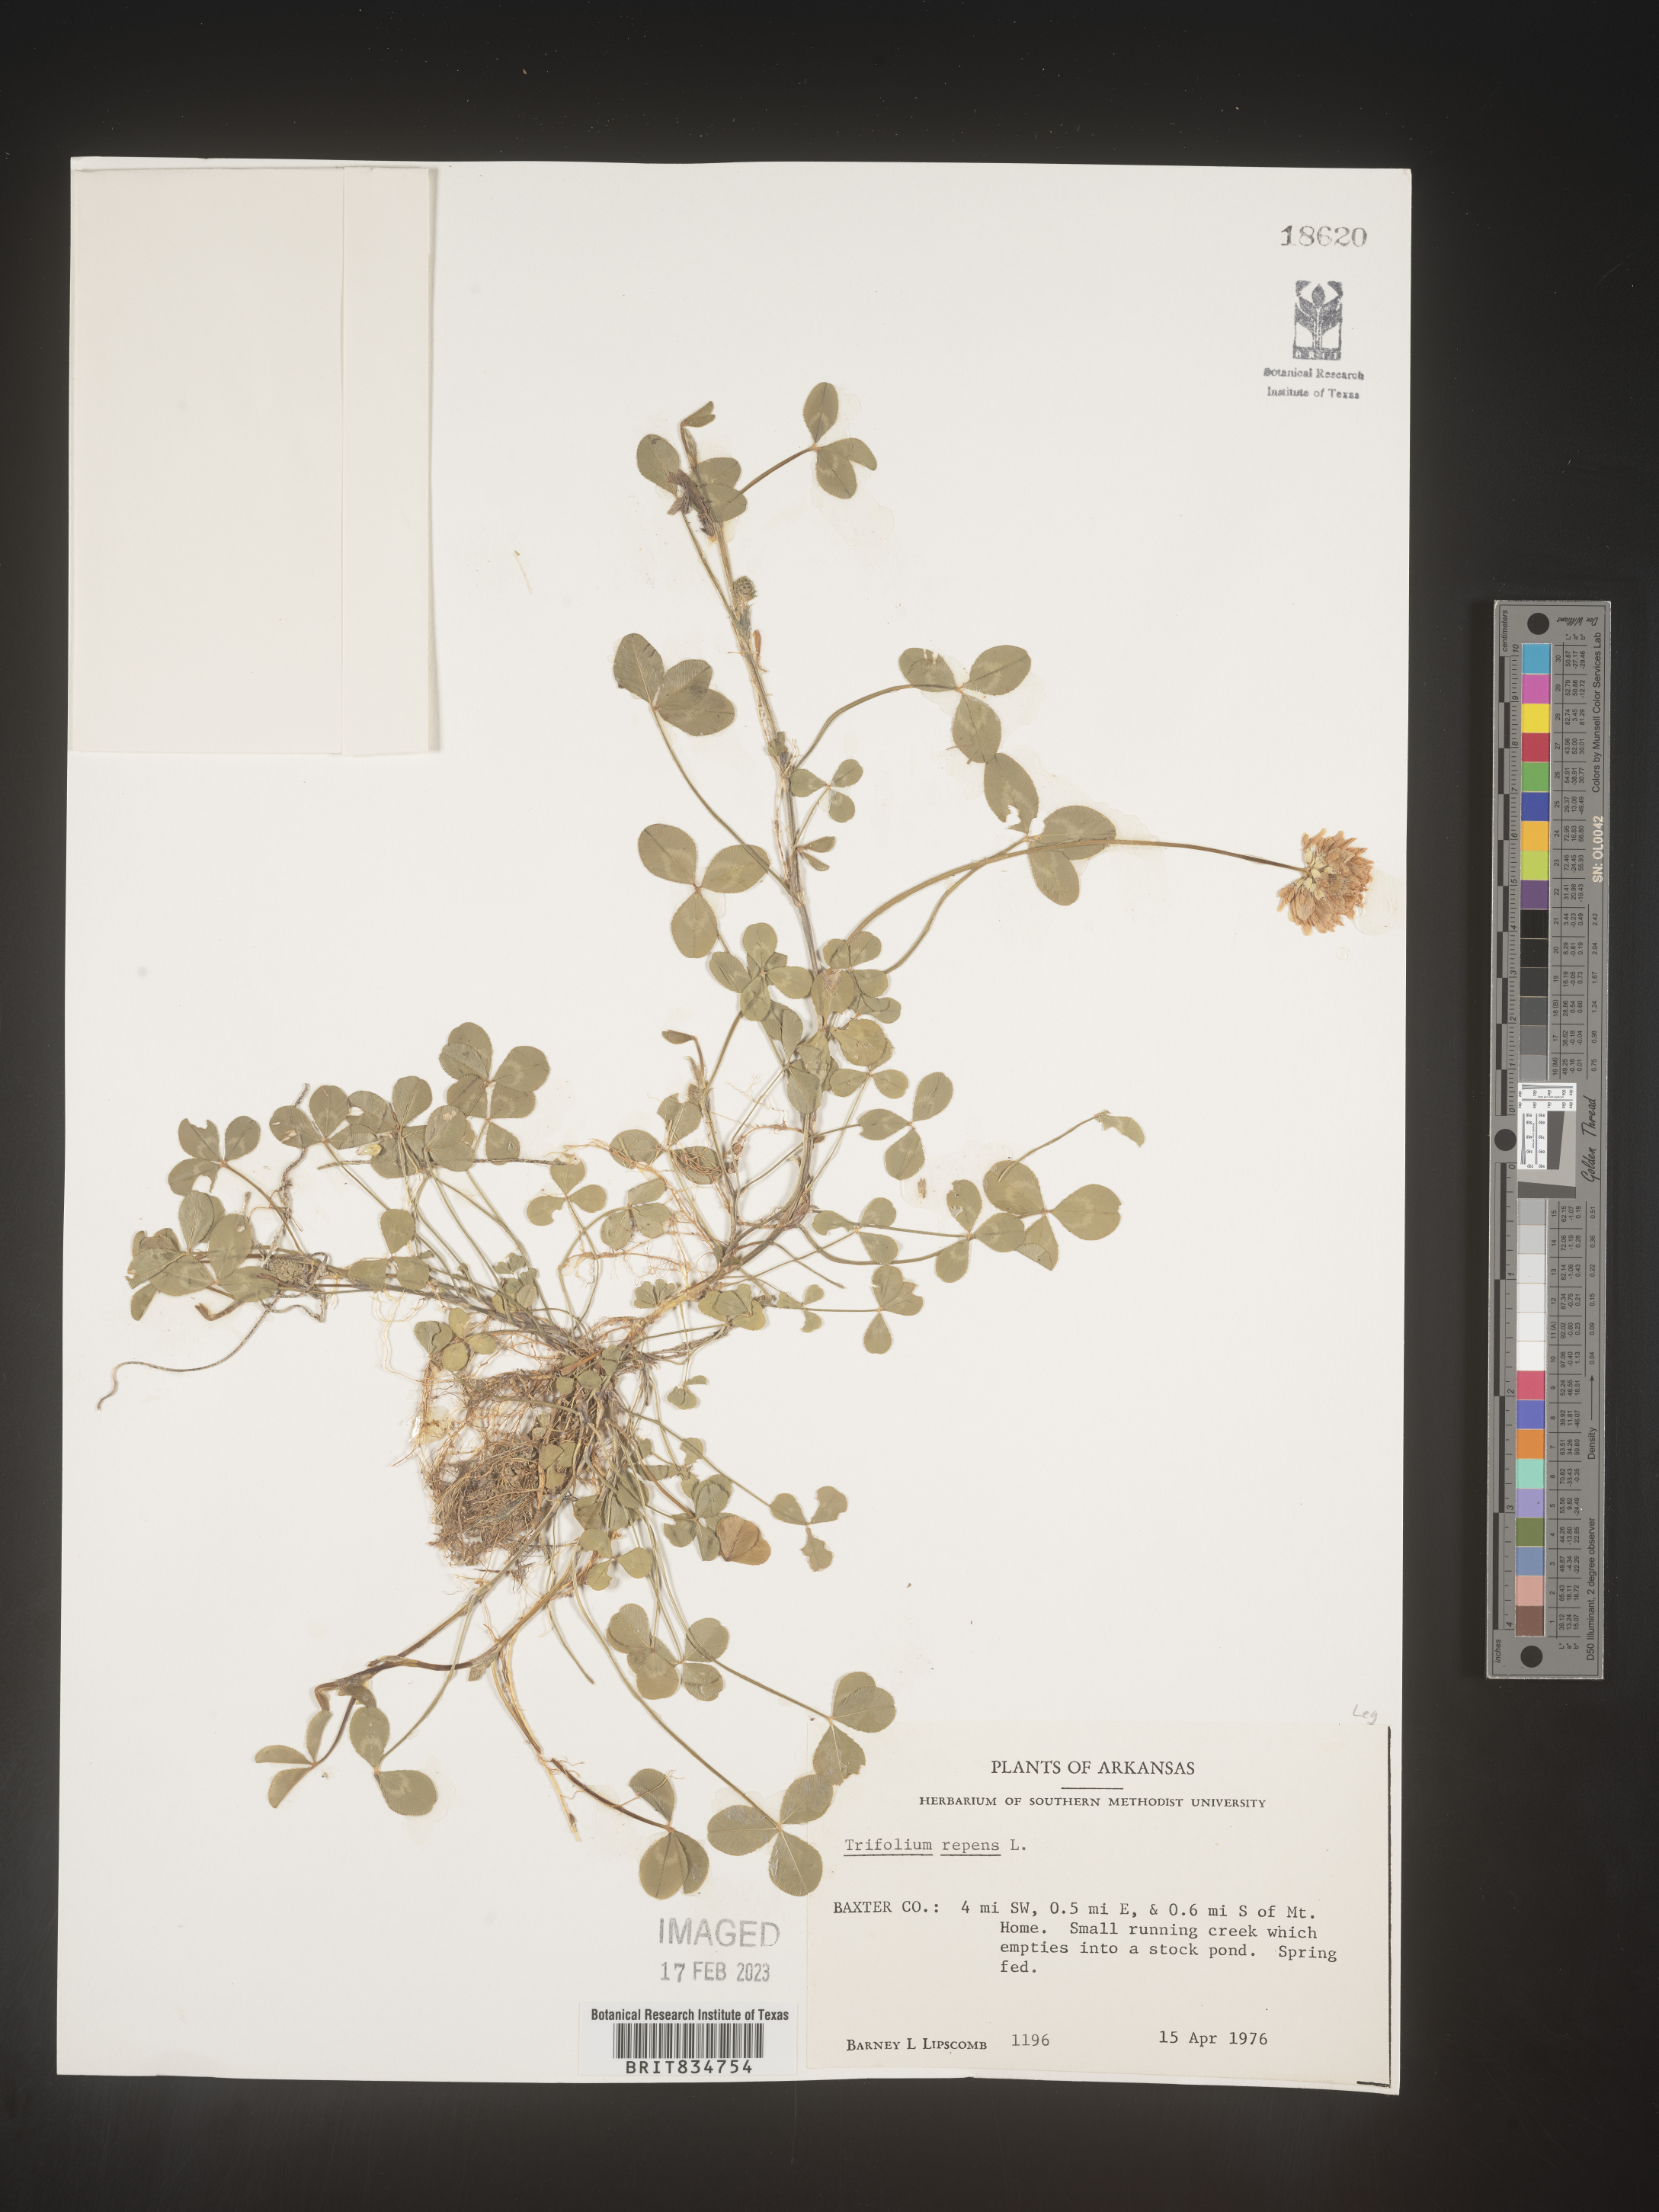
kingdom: Plantae
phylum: Tracheophyta
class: Magnoliopsida
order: Fabales
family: Fabaceae
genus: Trifolium
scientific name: Trifolium repens
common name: White clover
